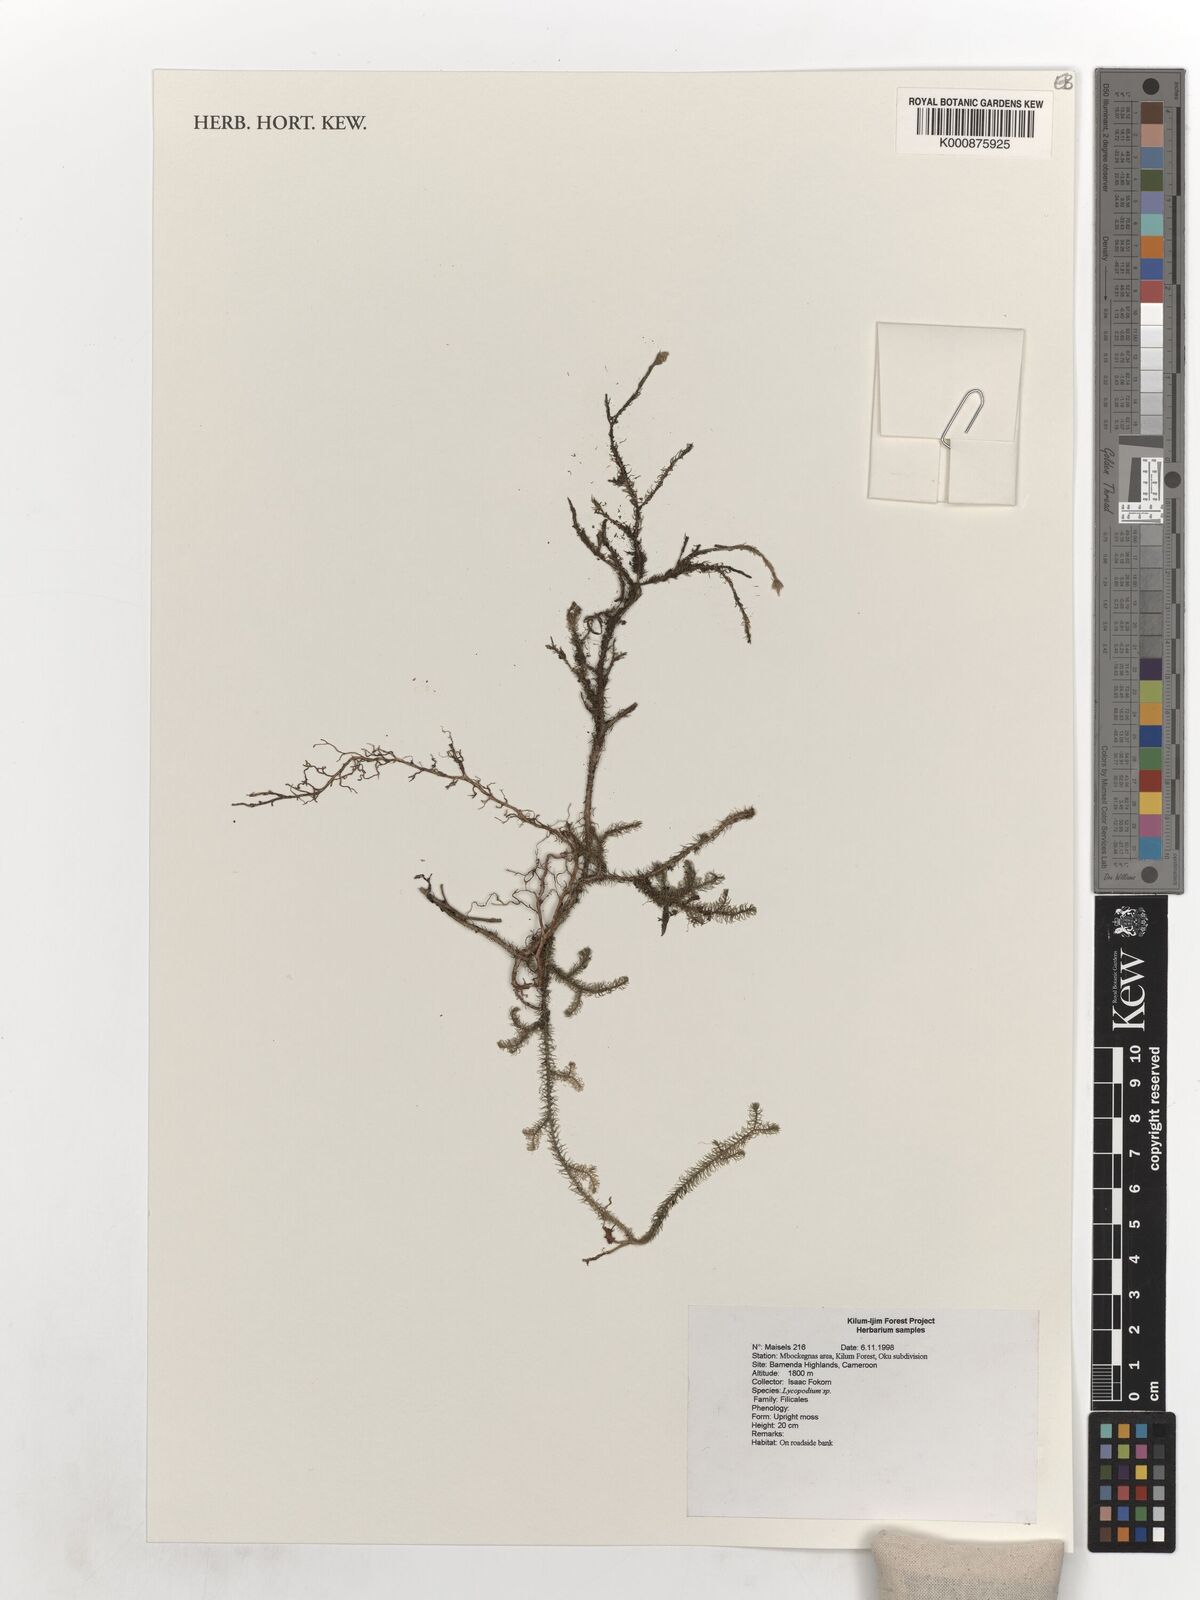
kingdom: Plantae
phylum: Tracheophyta
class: Lycopodiopsida
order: Lycopodiales
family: Lycopodiaceae
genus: Lycopodium
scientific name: Lycopodium
